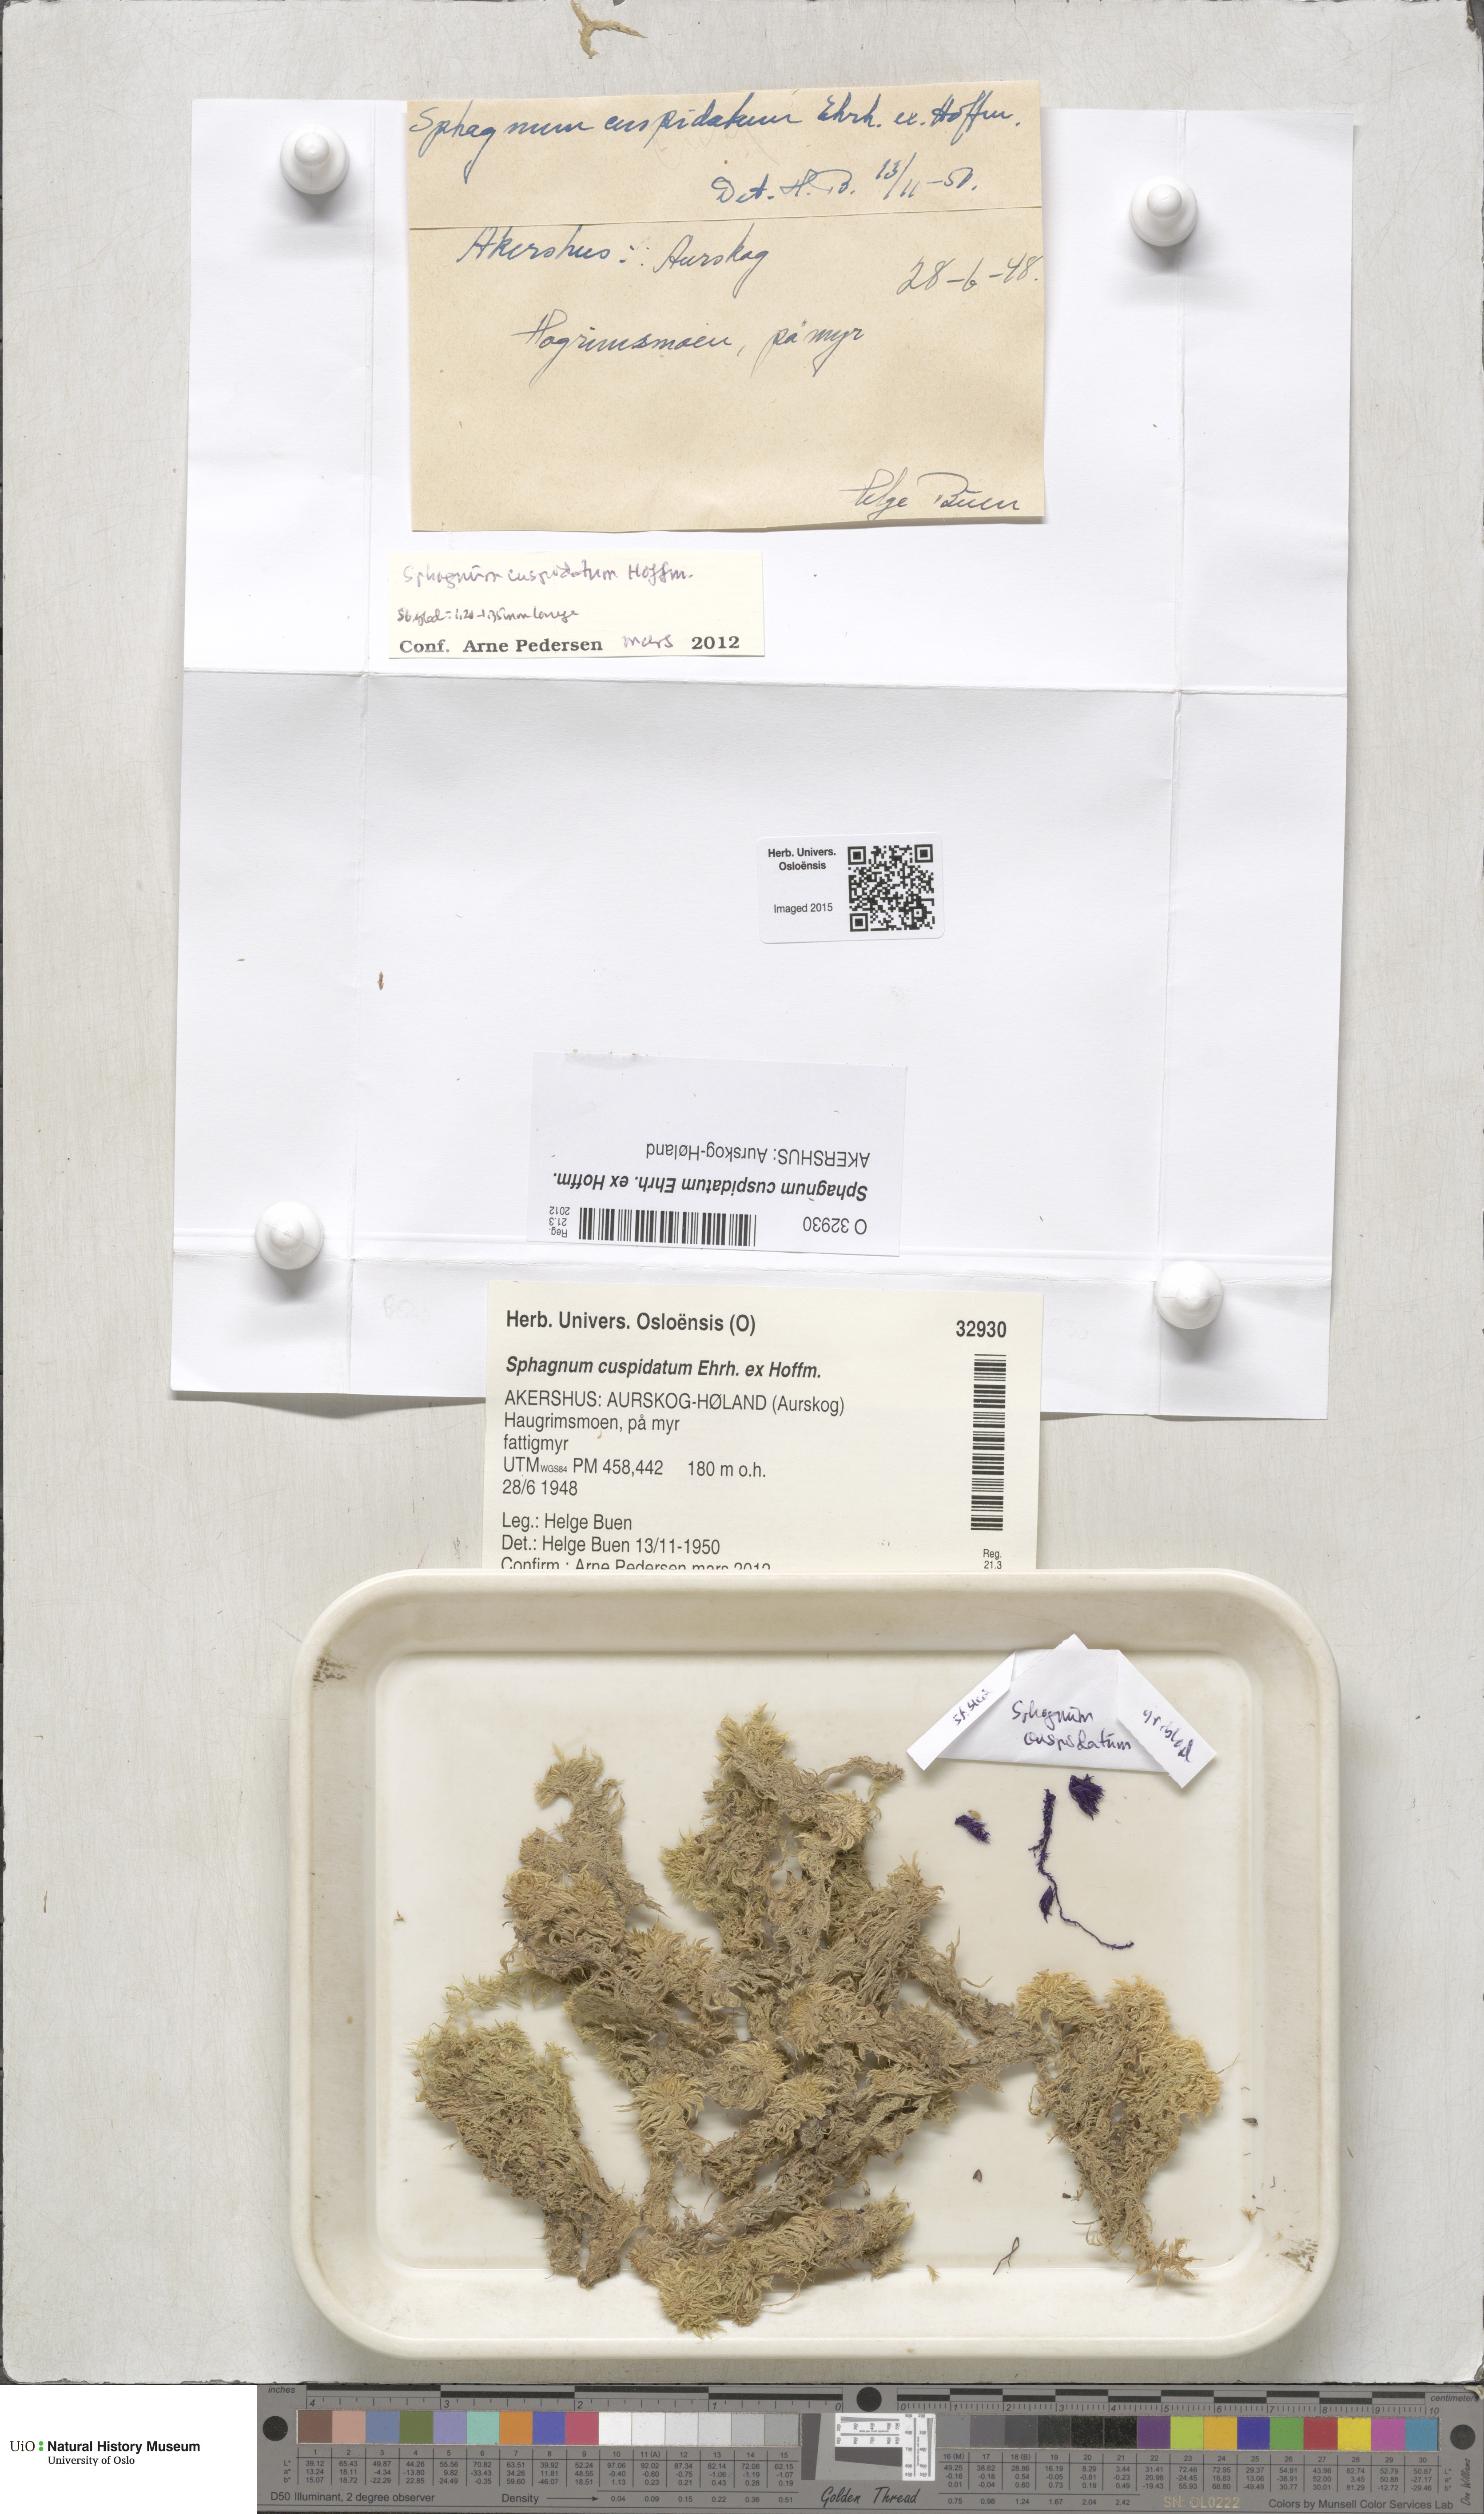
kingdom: Plantae
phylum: Bryophyta
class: Sphagnopsida
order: Sphagnales
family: Sphagnaceae
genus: Sphagnum
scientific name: Sphagnum cuspidatum
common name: Feathery peat moss
